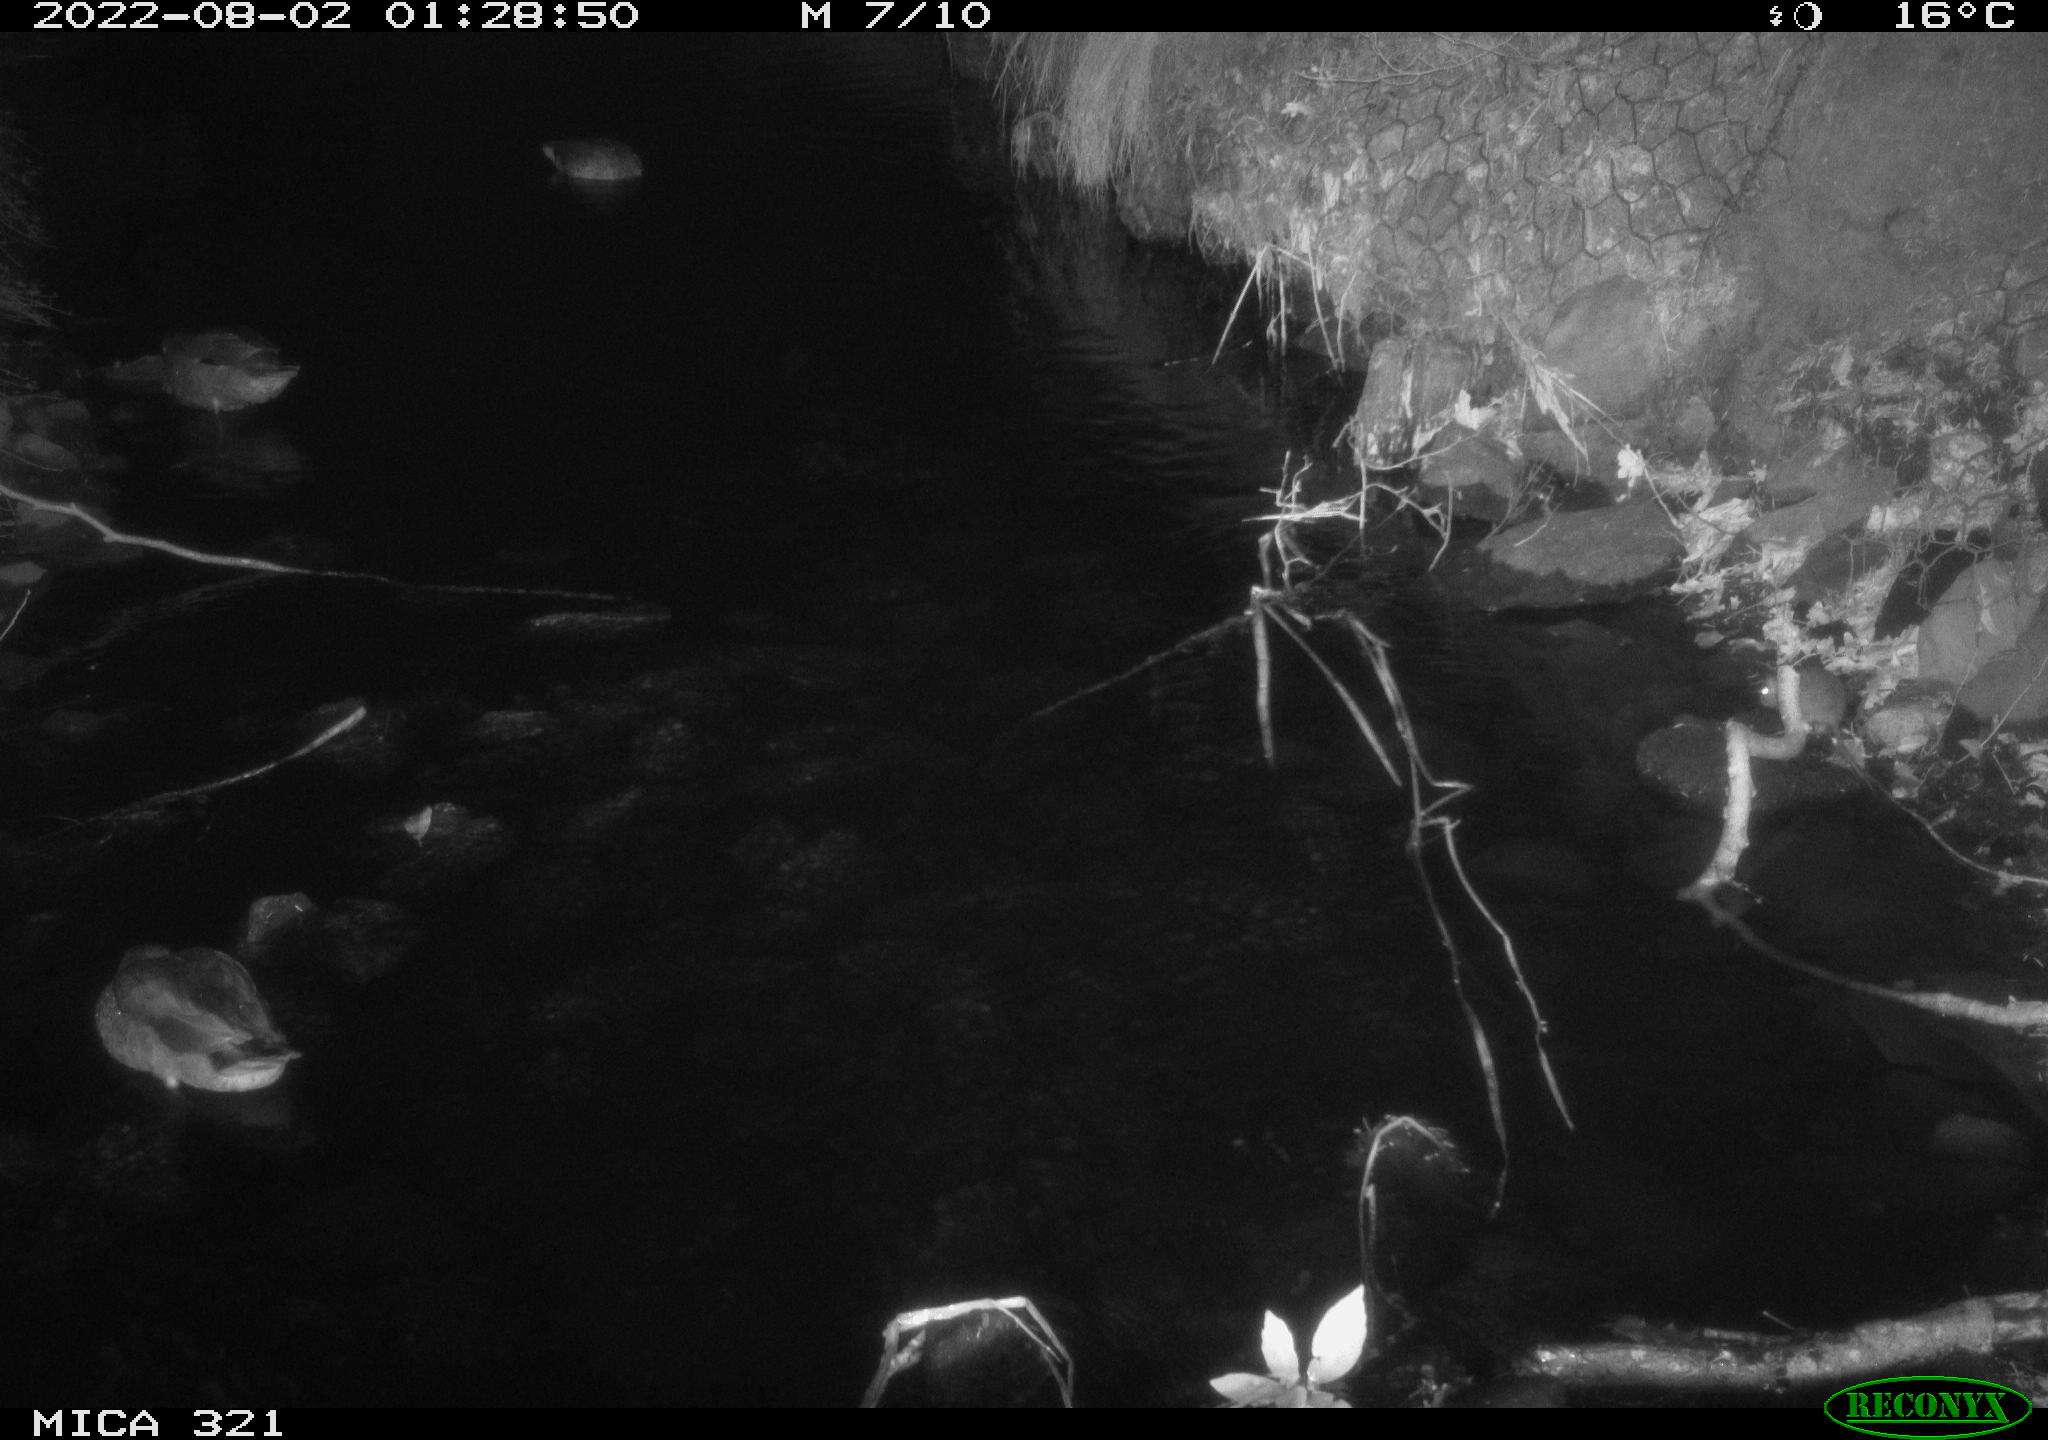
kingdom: Animalia
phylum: Chordata
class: Mammalia
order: Rodentia
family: Muridae
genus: Rattus
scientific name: Rattus norvegicus
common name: Brown rat
